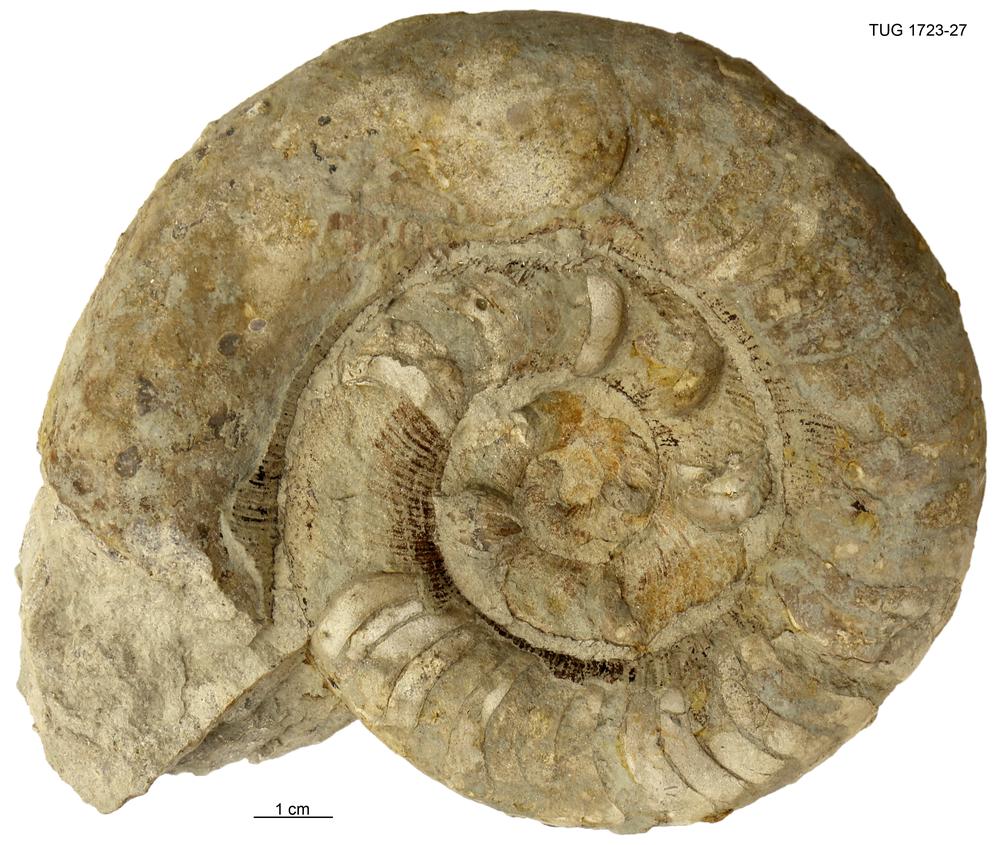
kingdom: Animalia
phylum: Mollusca
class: Cephalopoda
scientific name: Cephalopoda
